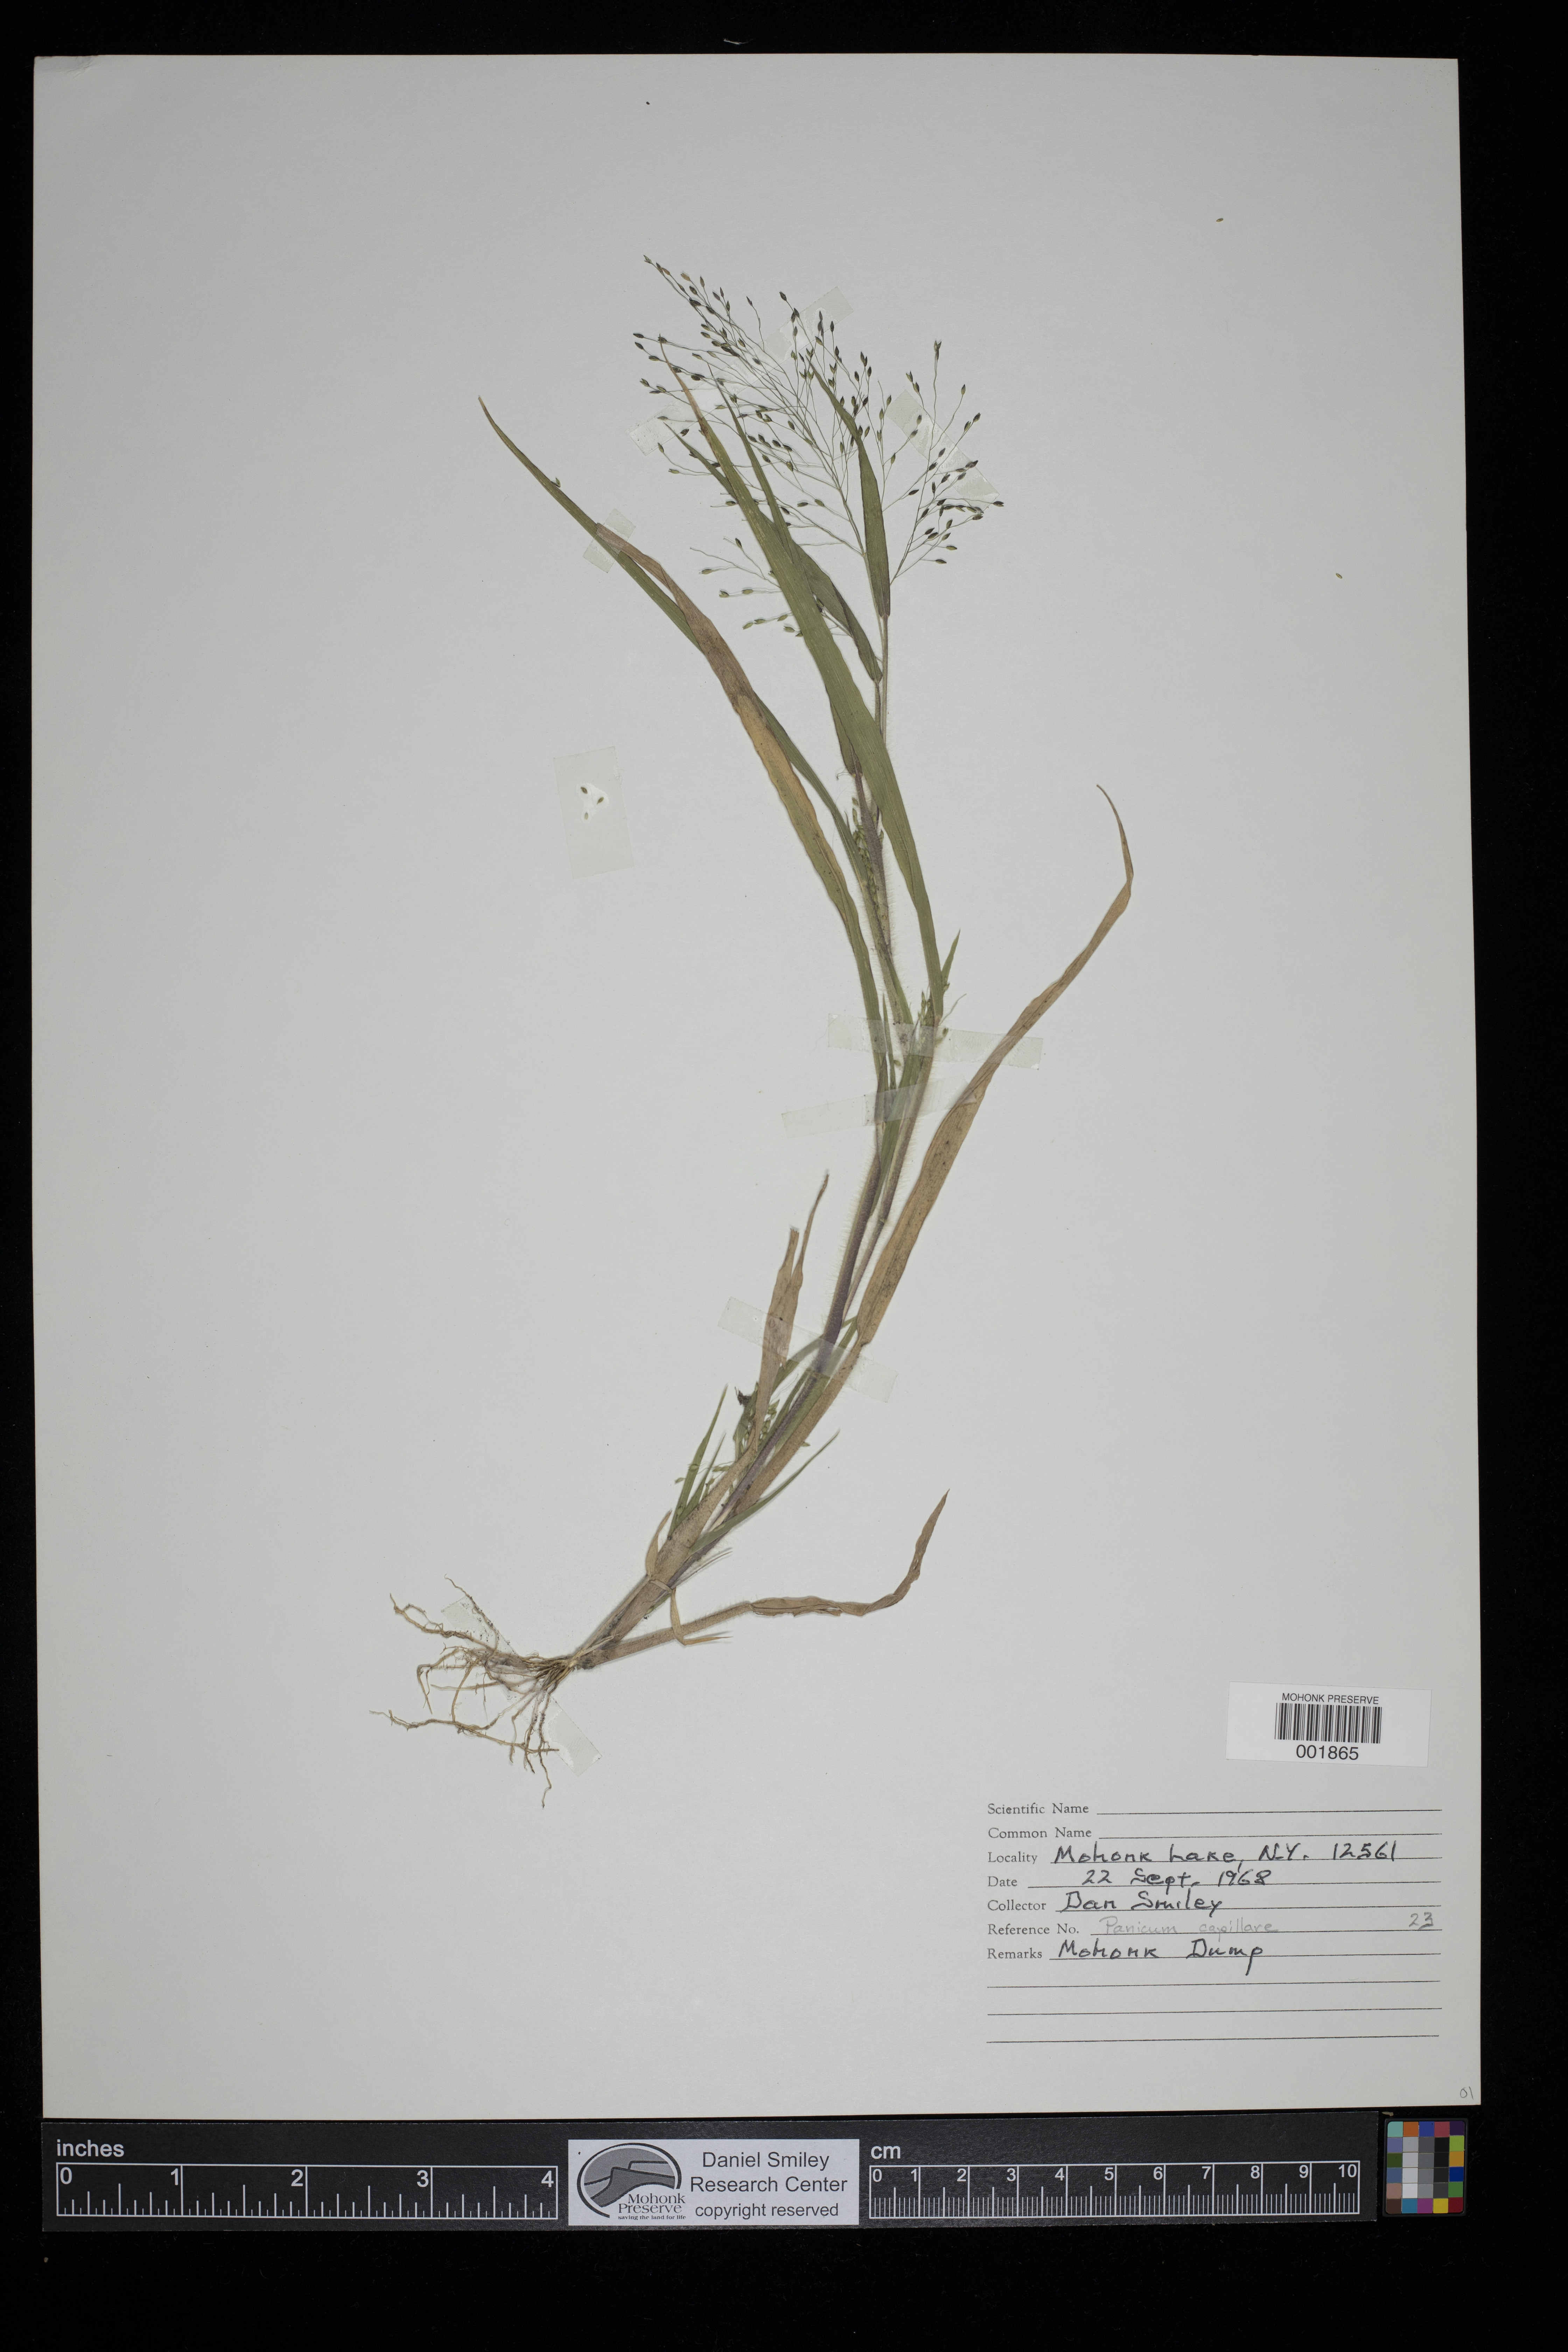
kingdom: Plantae
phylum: Tracheophyta
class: Liliopsida
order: Poales
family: Poaceae
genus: Panicum
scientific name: Panicum capillare
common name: Witch-grass
